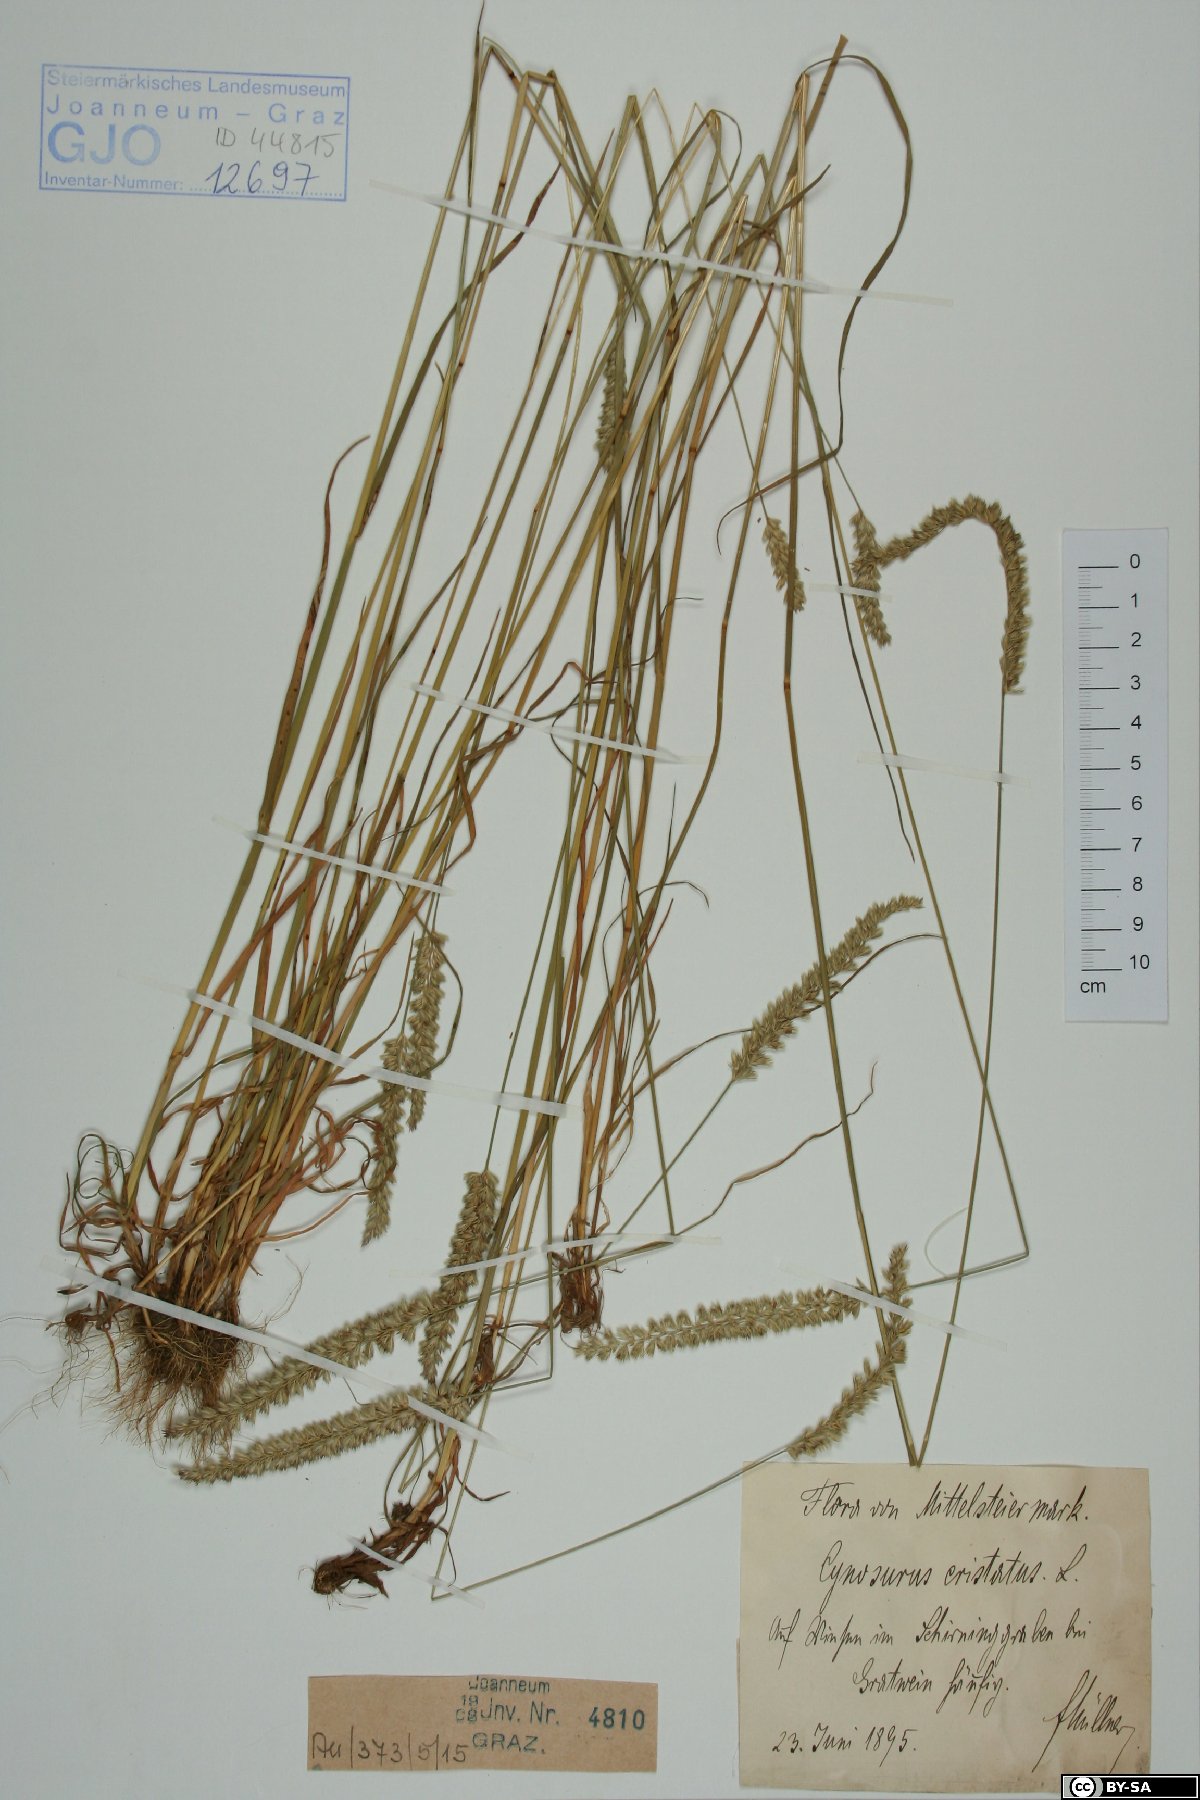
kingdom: Plantae
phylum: Tracheophyta
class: Liliopsida
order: Poales
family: Poaceae
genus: Cynosurus
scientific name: Cynosurus cristatus
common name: Crested dog's-tail
